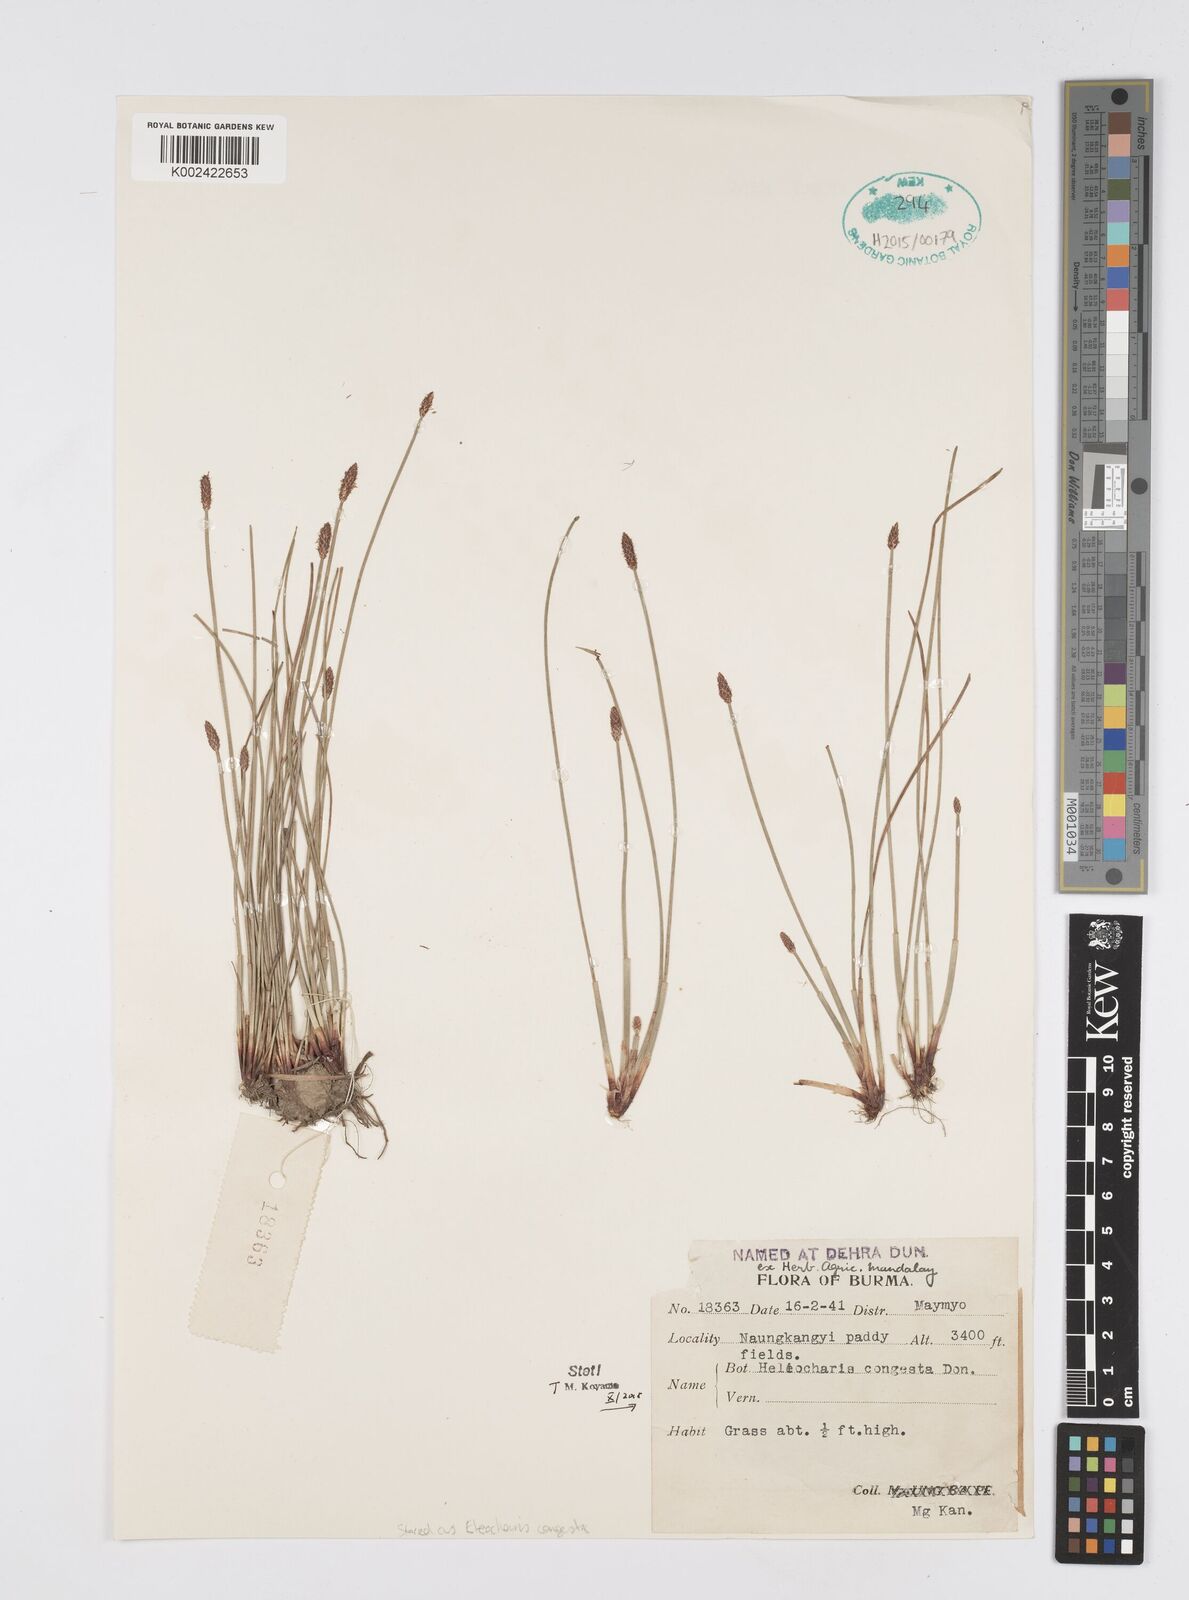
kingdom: Plantae
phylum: Tracheophyta
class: Liliopsida
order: Poales
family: Cyperaceae
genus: Eleocharis
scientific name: Eleocharis congesta
